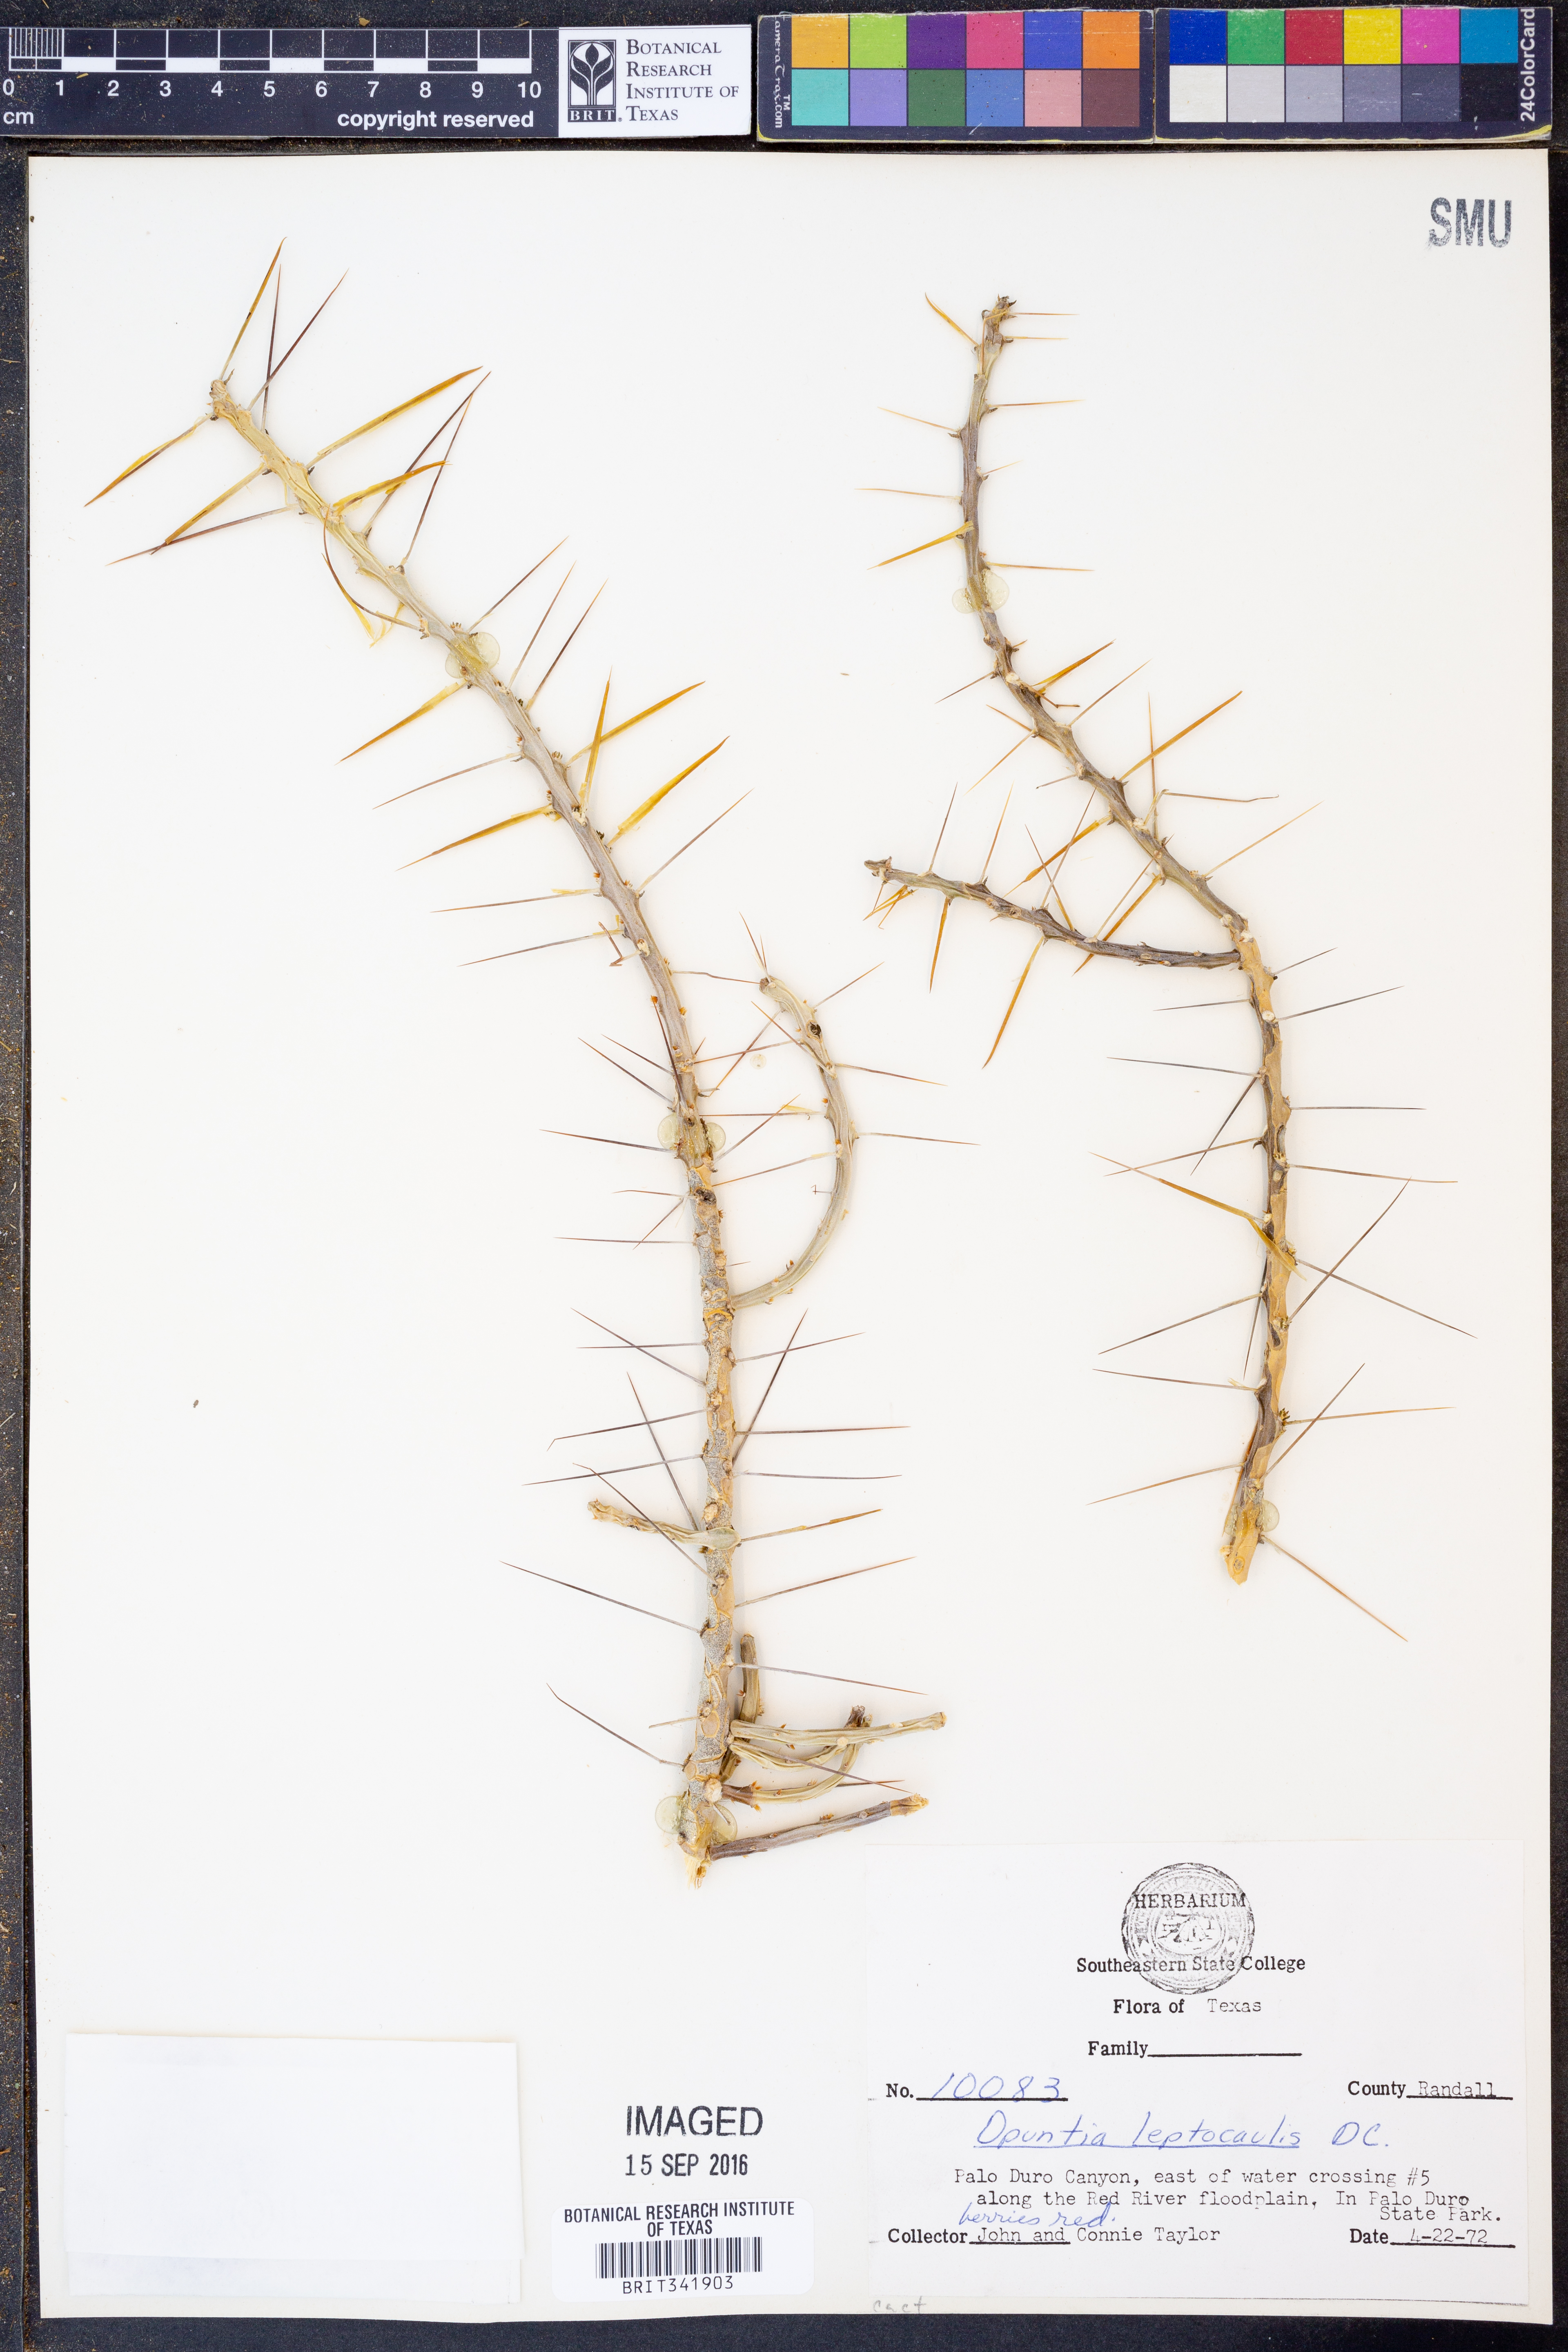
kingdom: Plantae
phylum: Tracheophyta
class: Magnoliopsida
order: Caryophyllales
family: Cactaceae
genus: Cylindropuntia
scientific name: Cylindropuntia leptocaulis
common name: Christmas cactus
